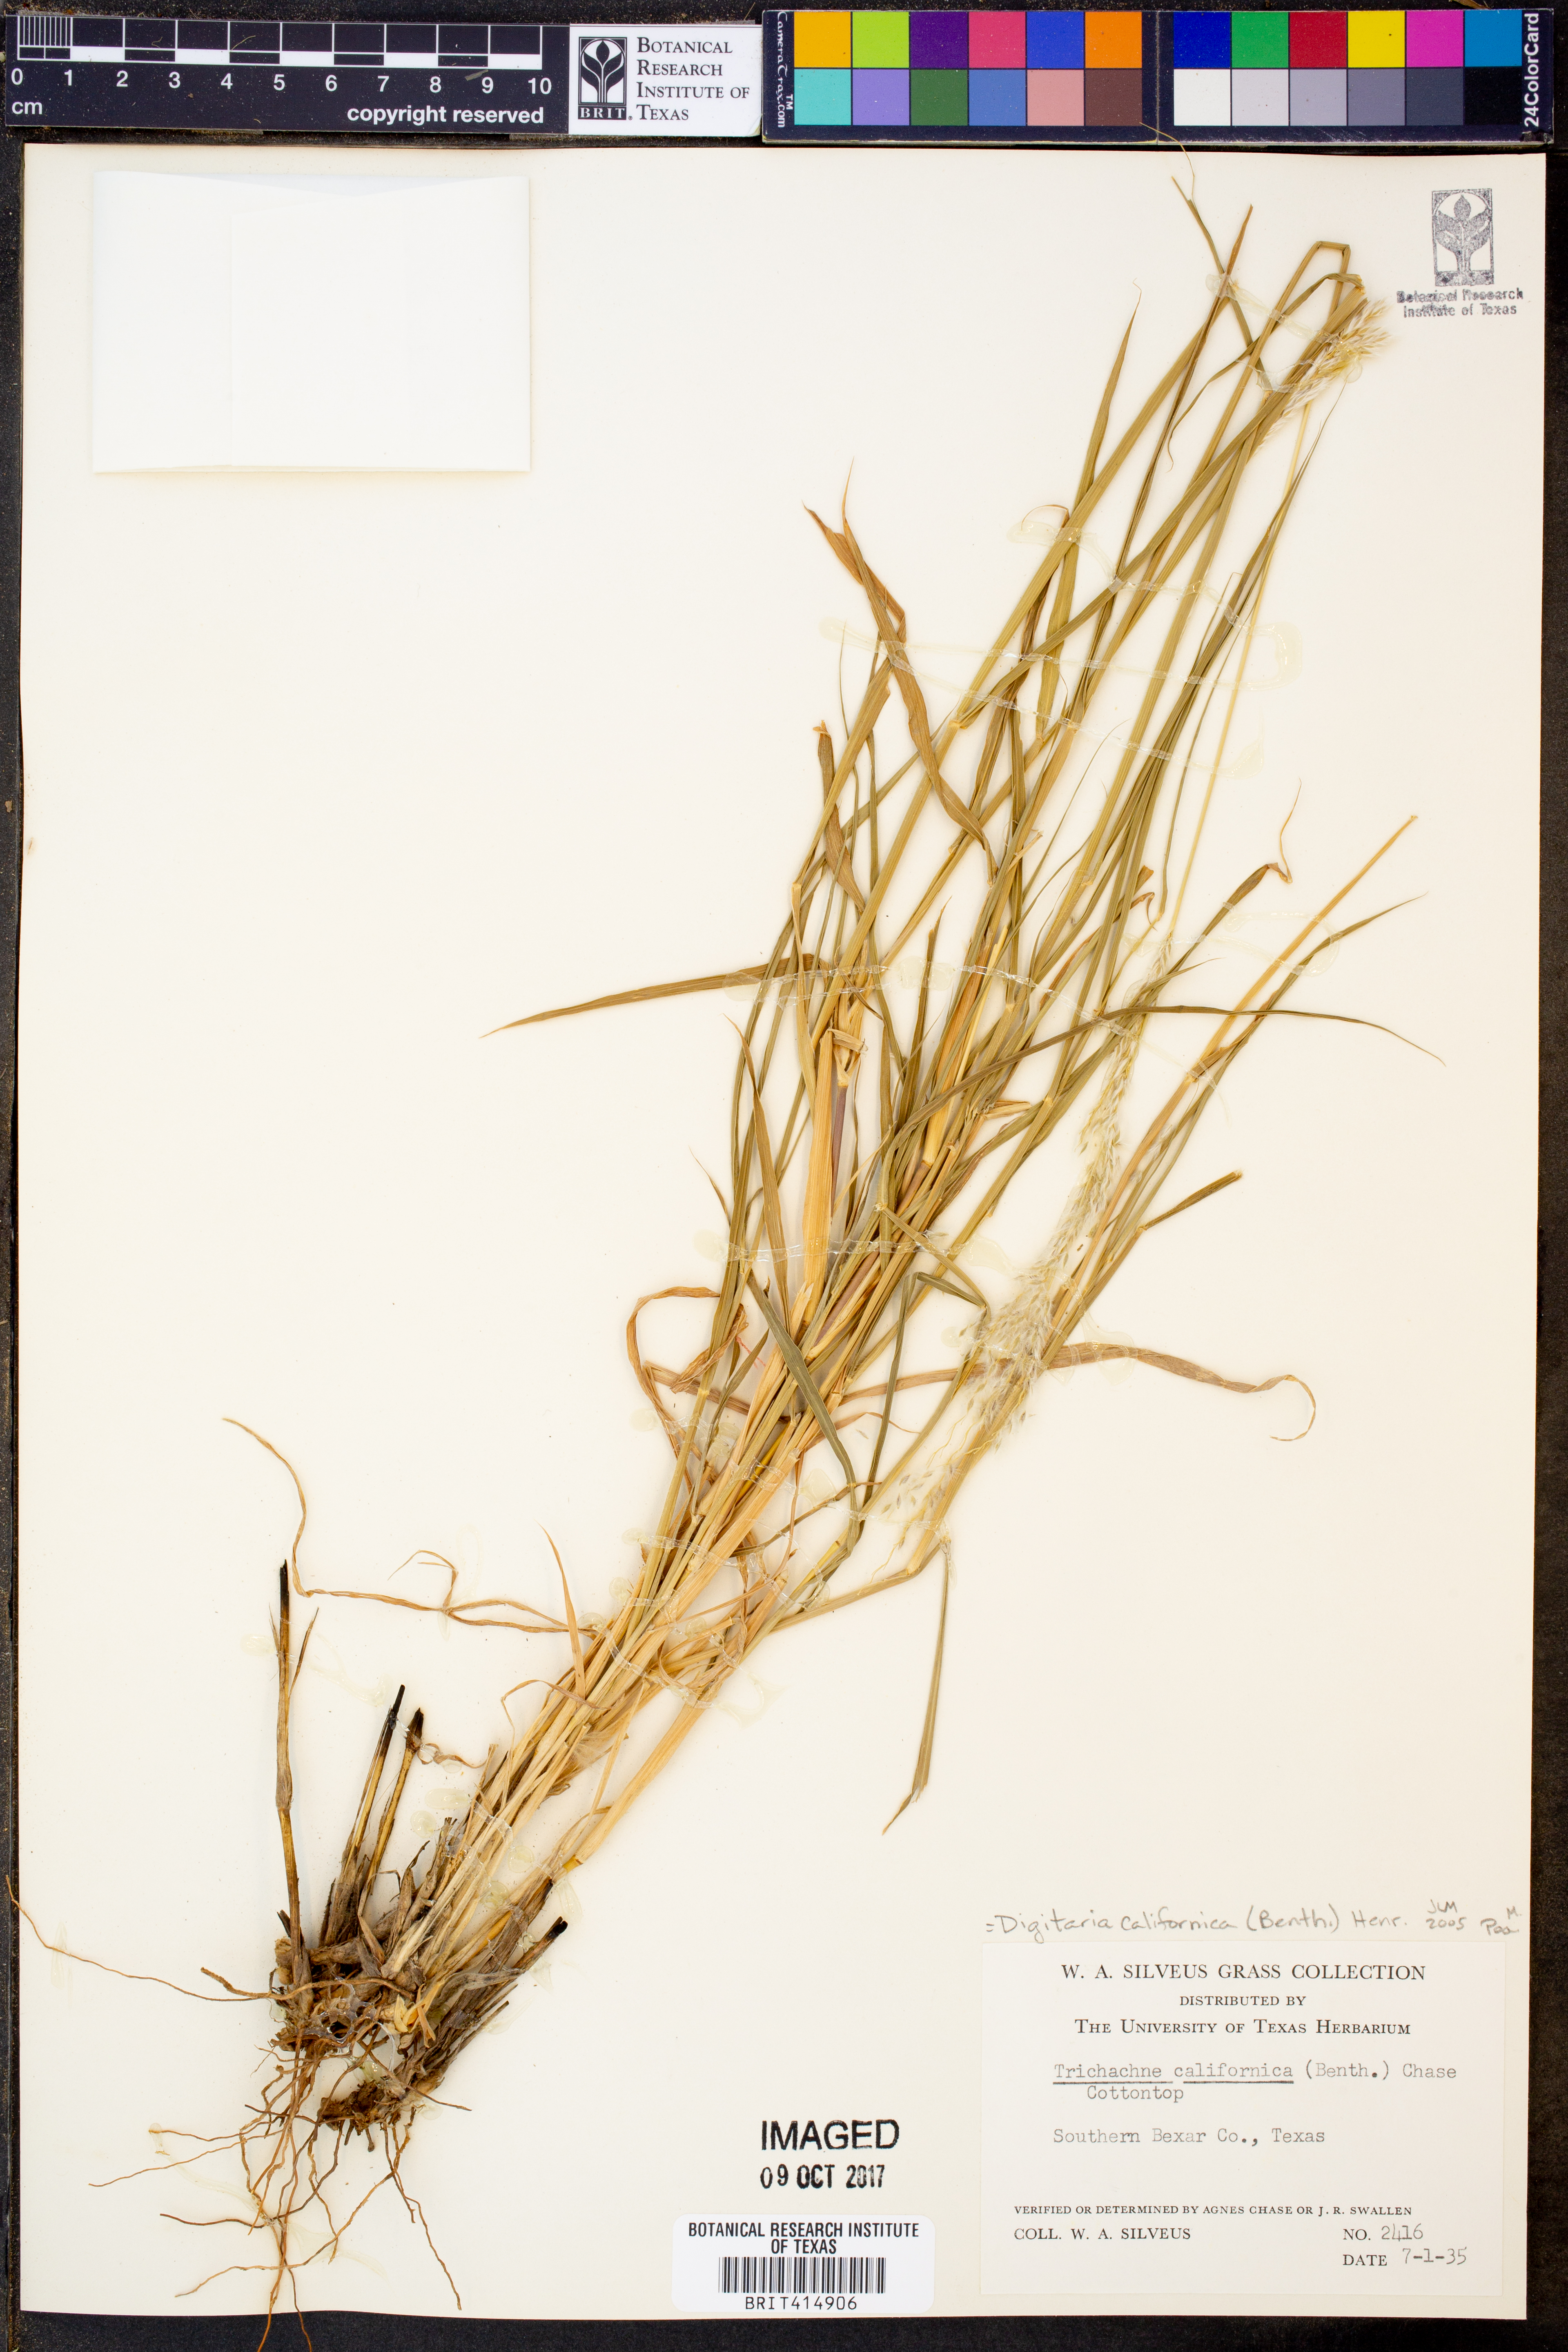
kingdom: Plantae
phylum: Tracheophyta
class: Liliopsida
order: Poales
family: Poaceae
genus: Digitaria
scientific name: Digitaria californica
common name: Arizona cottontop
